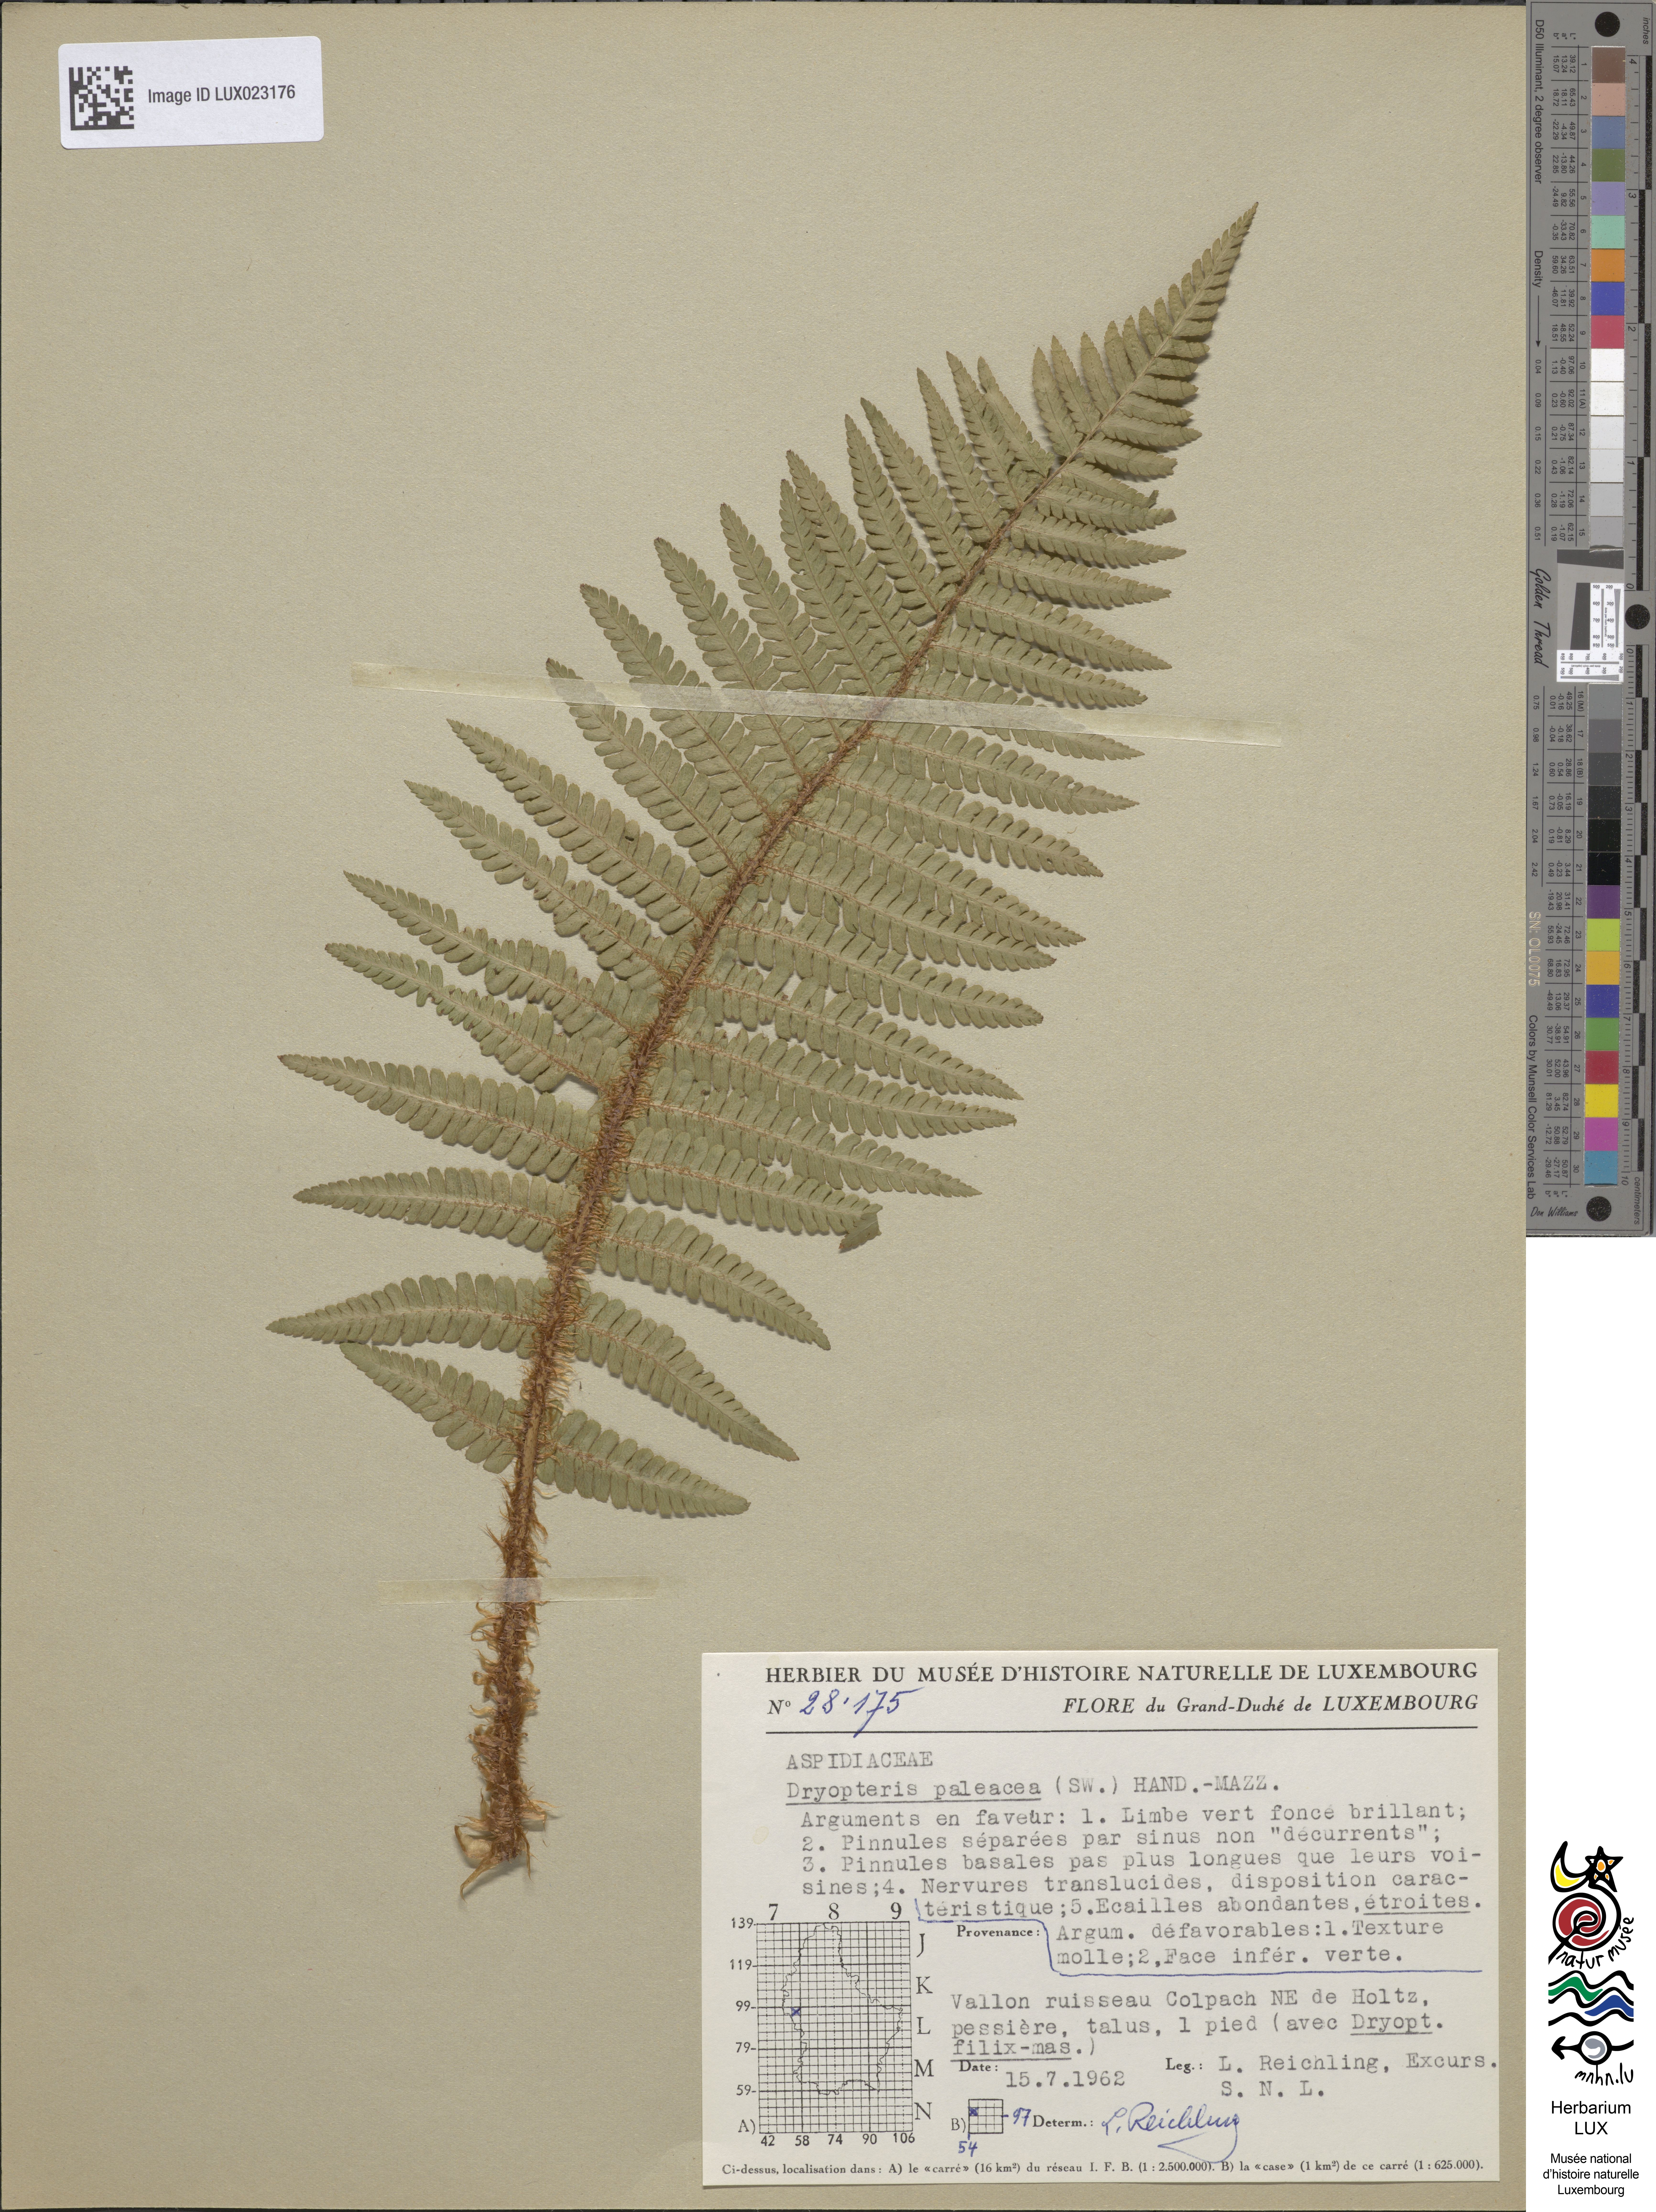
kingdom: Plantae
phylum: Tracheophyta
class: Polypodiopsida
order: Polypodiales
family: Dryopteridaceae
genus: Dryopteris
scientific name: Dryopteris borreri
